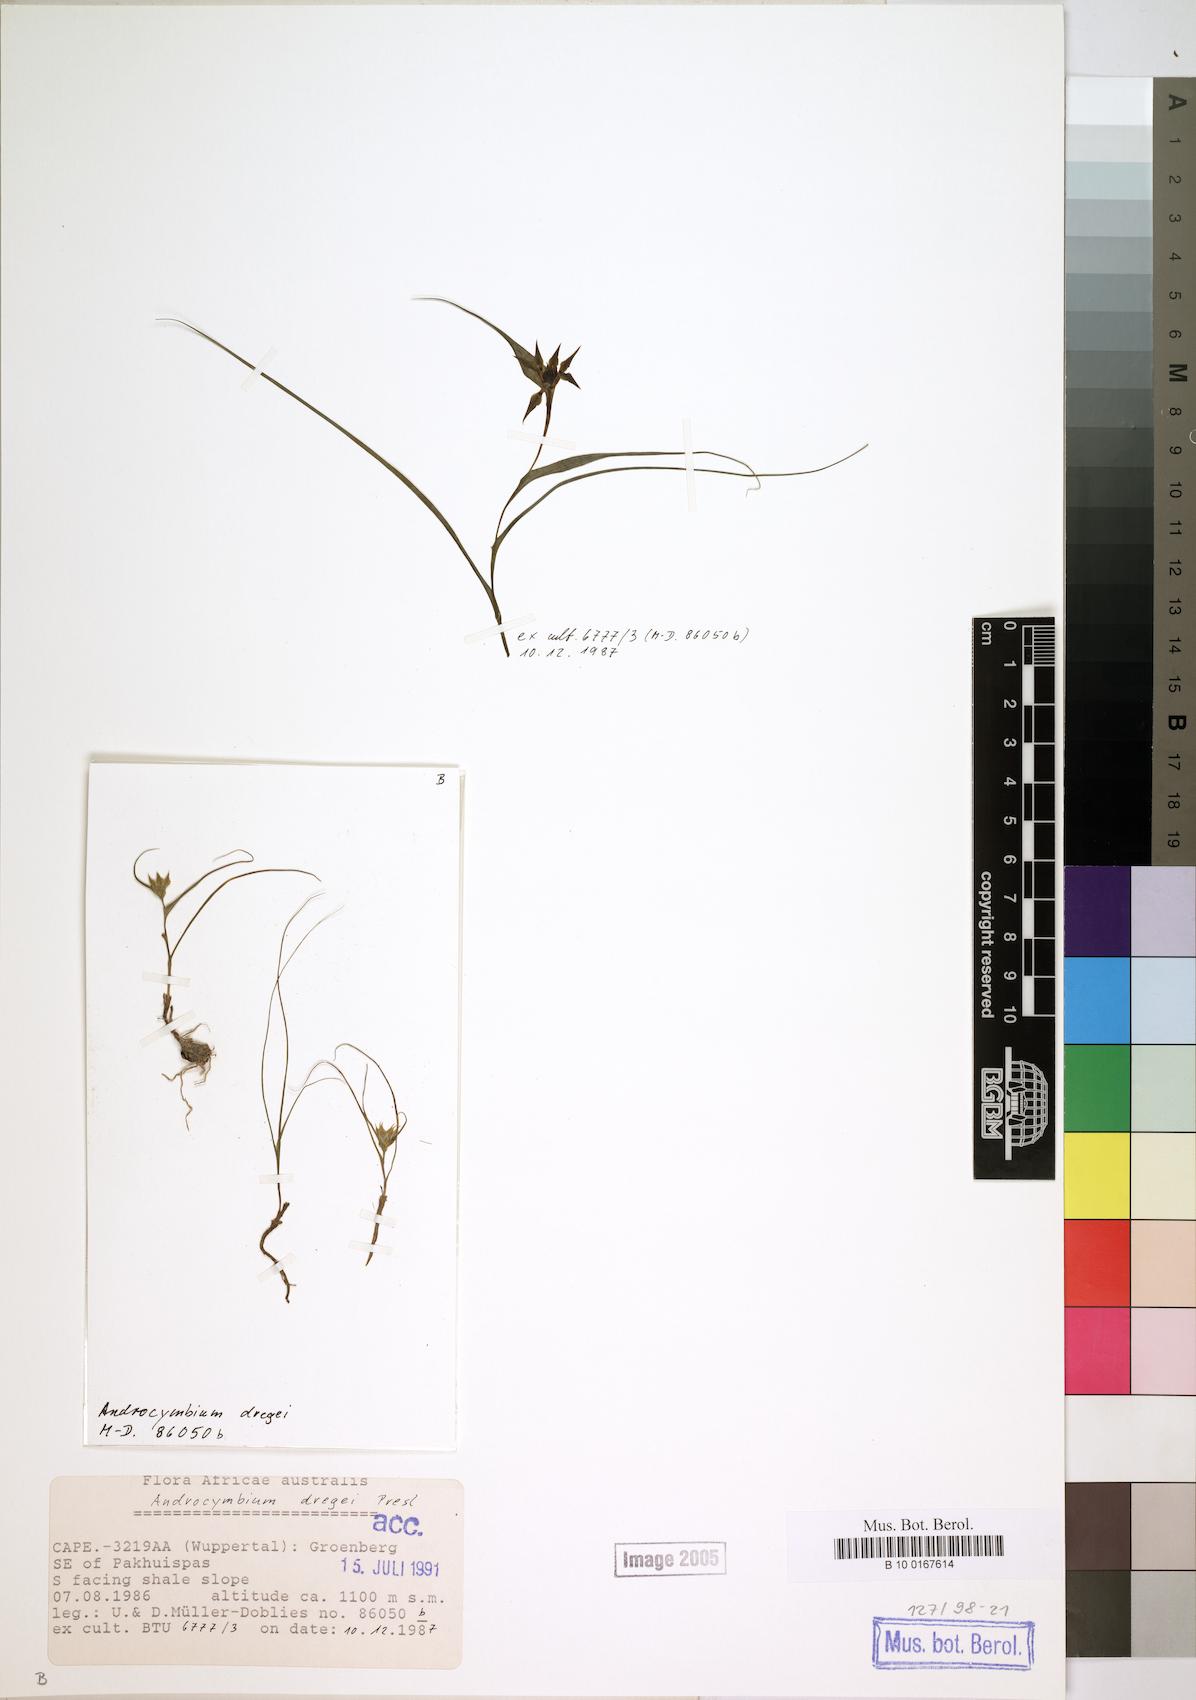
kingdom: Plantae
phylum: Tracheophyta
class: Liliopsida
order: Liliales
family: Colchicaceae
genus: Colchicum
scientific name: Colchicum dregei
